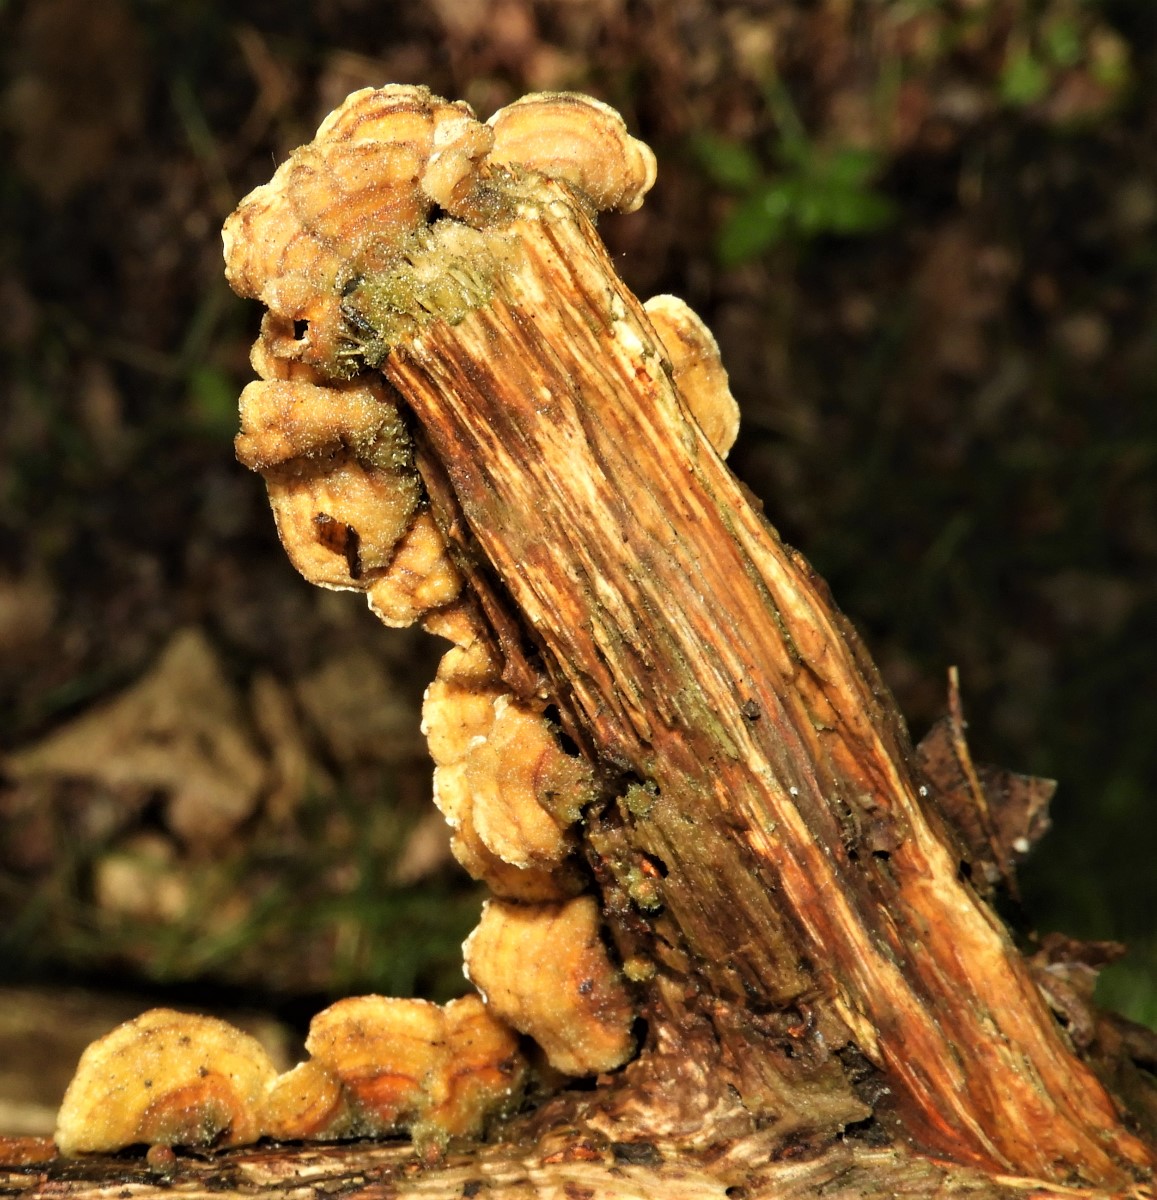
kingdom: Fungi
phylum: Basidiomycota
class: Agaricomycetes
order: Russulales
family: Stereaceae
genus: Stereum
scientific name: Stereum hirsutum
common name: håret lædersvamp
